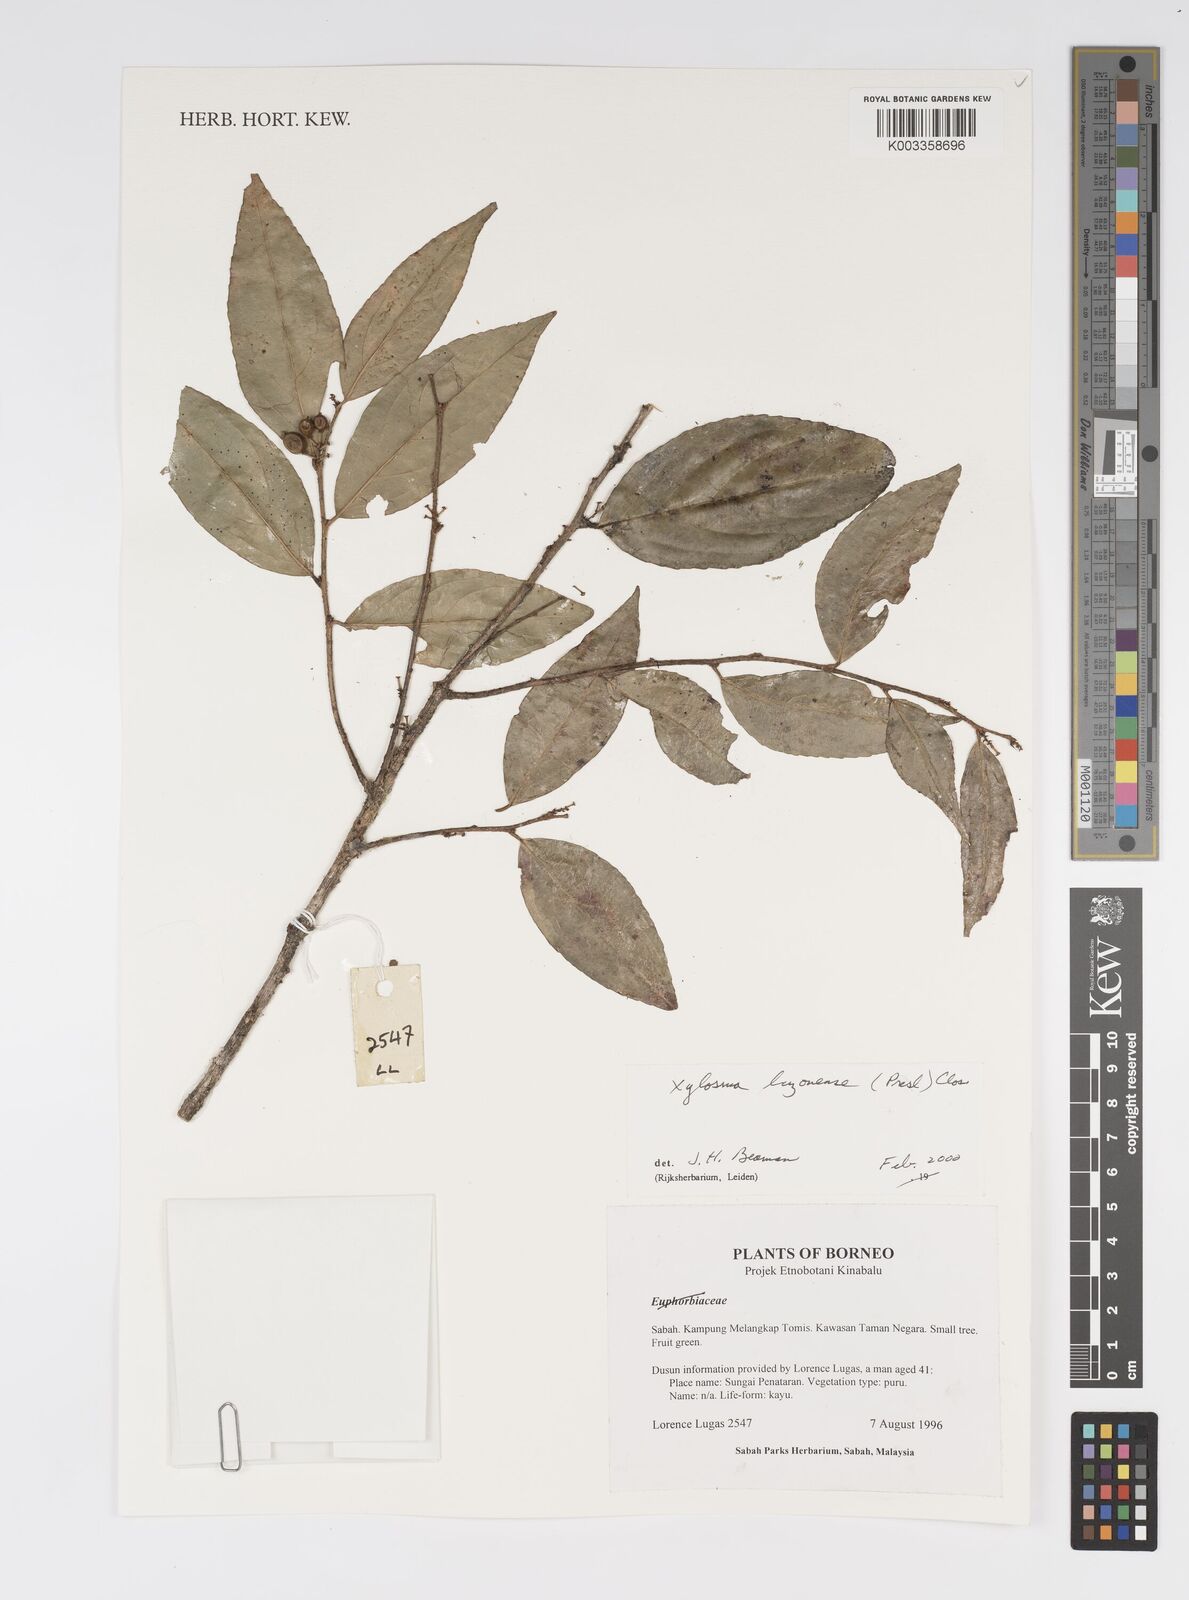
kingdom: Plantae
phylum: Tracheophyta
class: Magnoliopsida
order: Malpighiales
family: Salicaceae
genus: Xylosma
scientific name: Xylosma luzonensis
